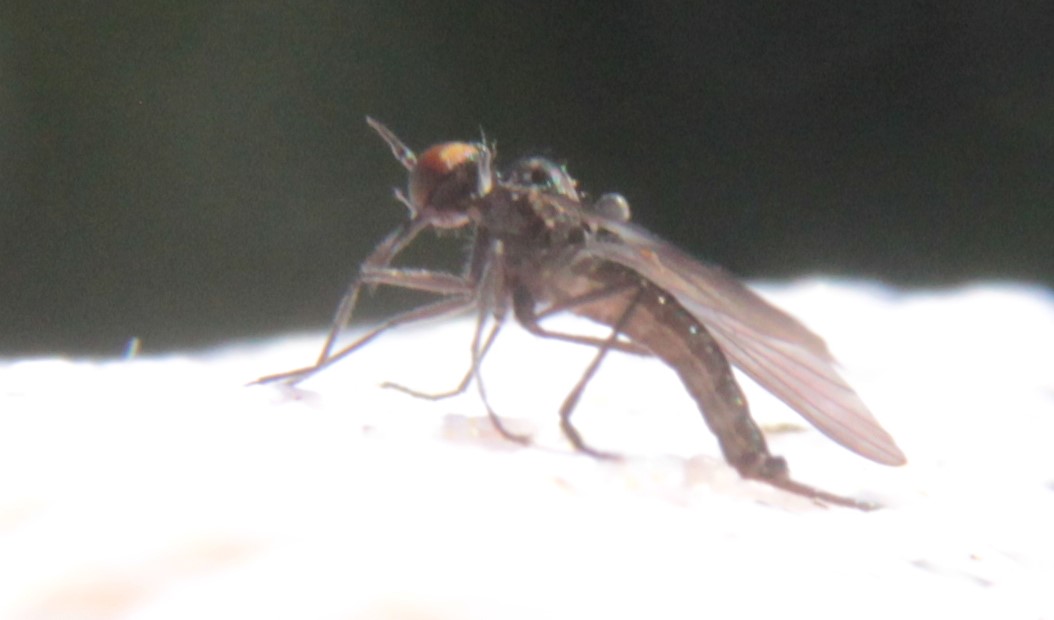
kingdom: Animalia
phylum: Arthropoda
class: Insecta
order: Diptera
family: Empididae
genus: Rhamphomyia
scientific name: Rhamphomyia umbripennis
